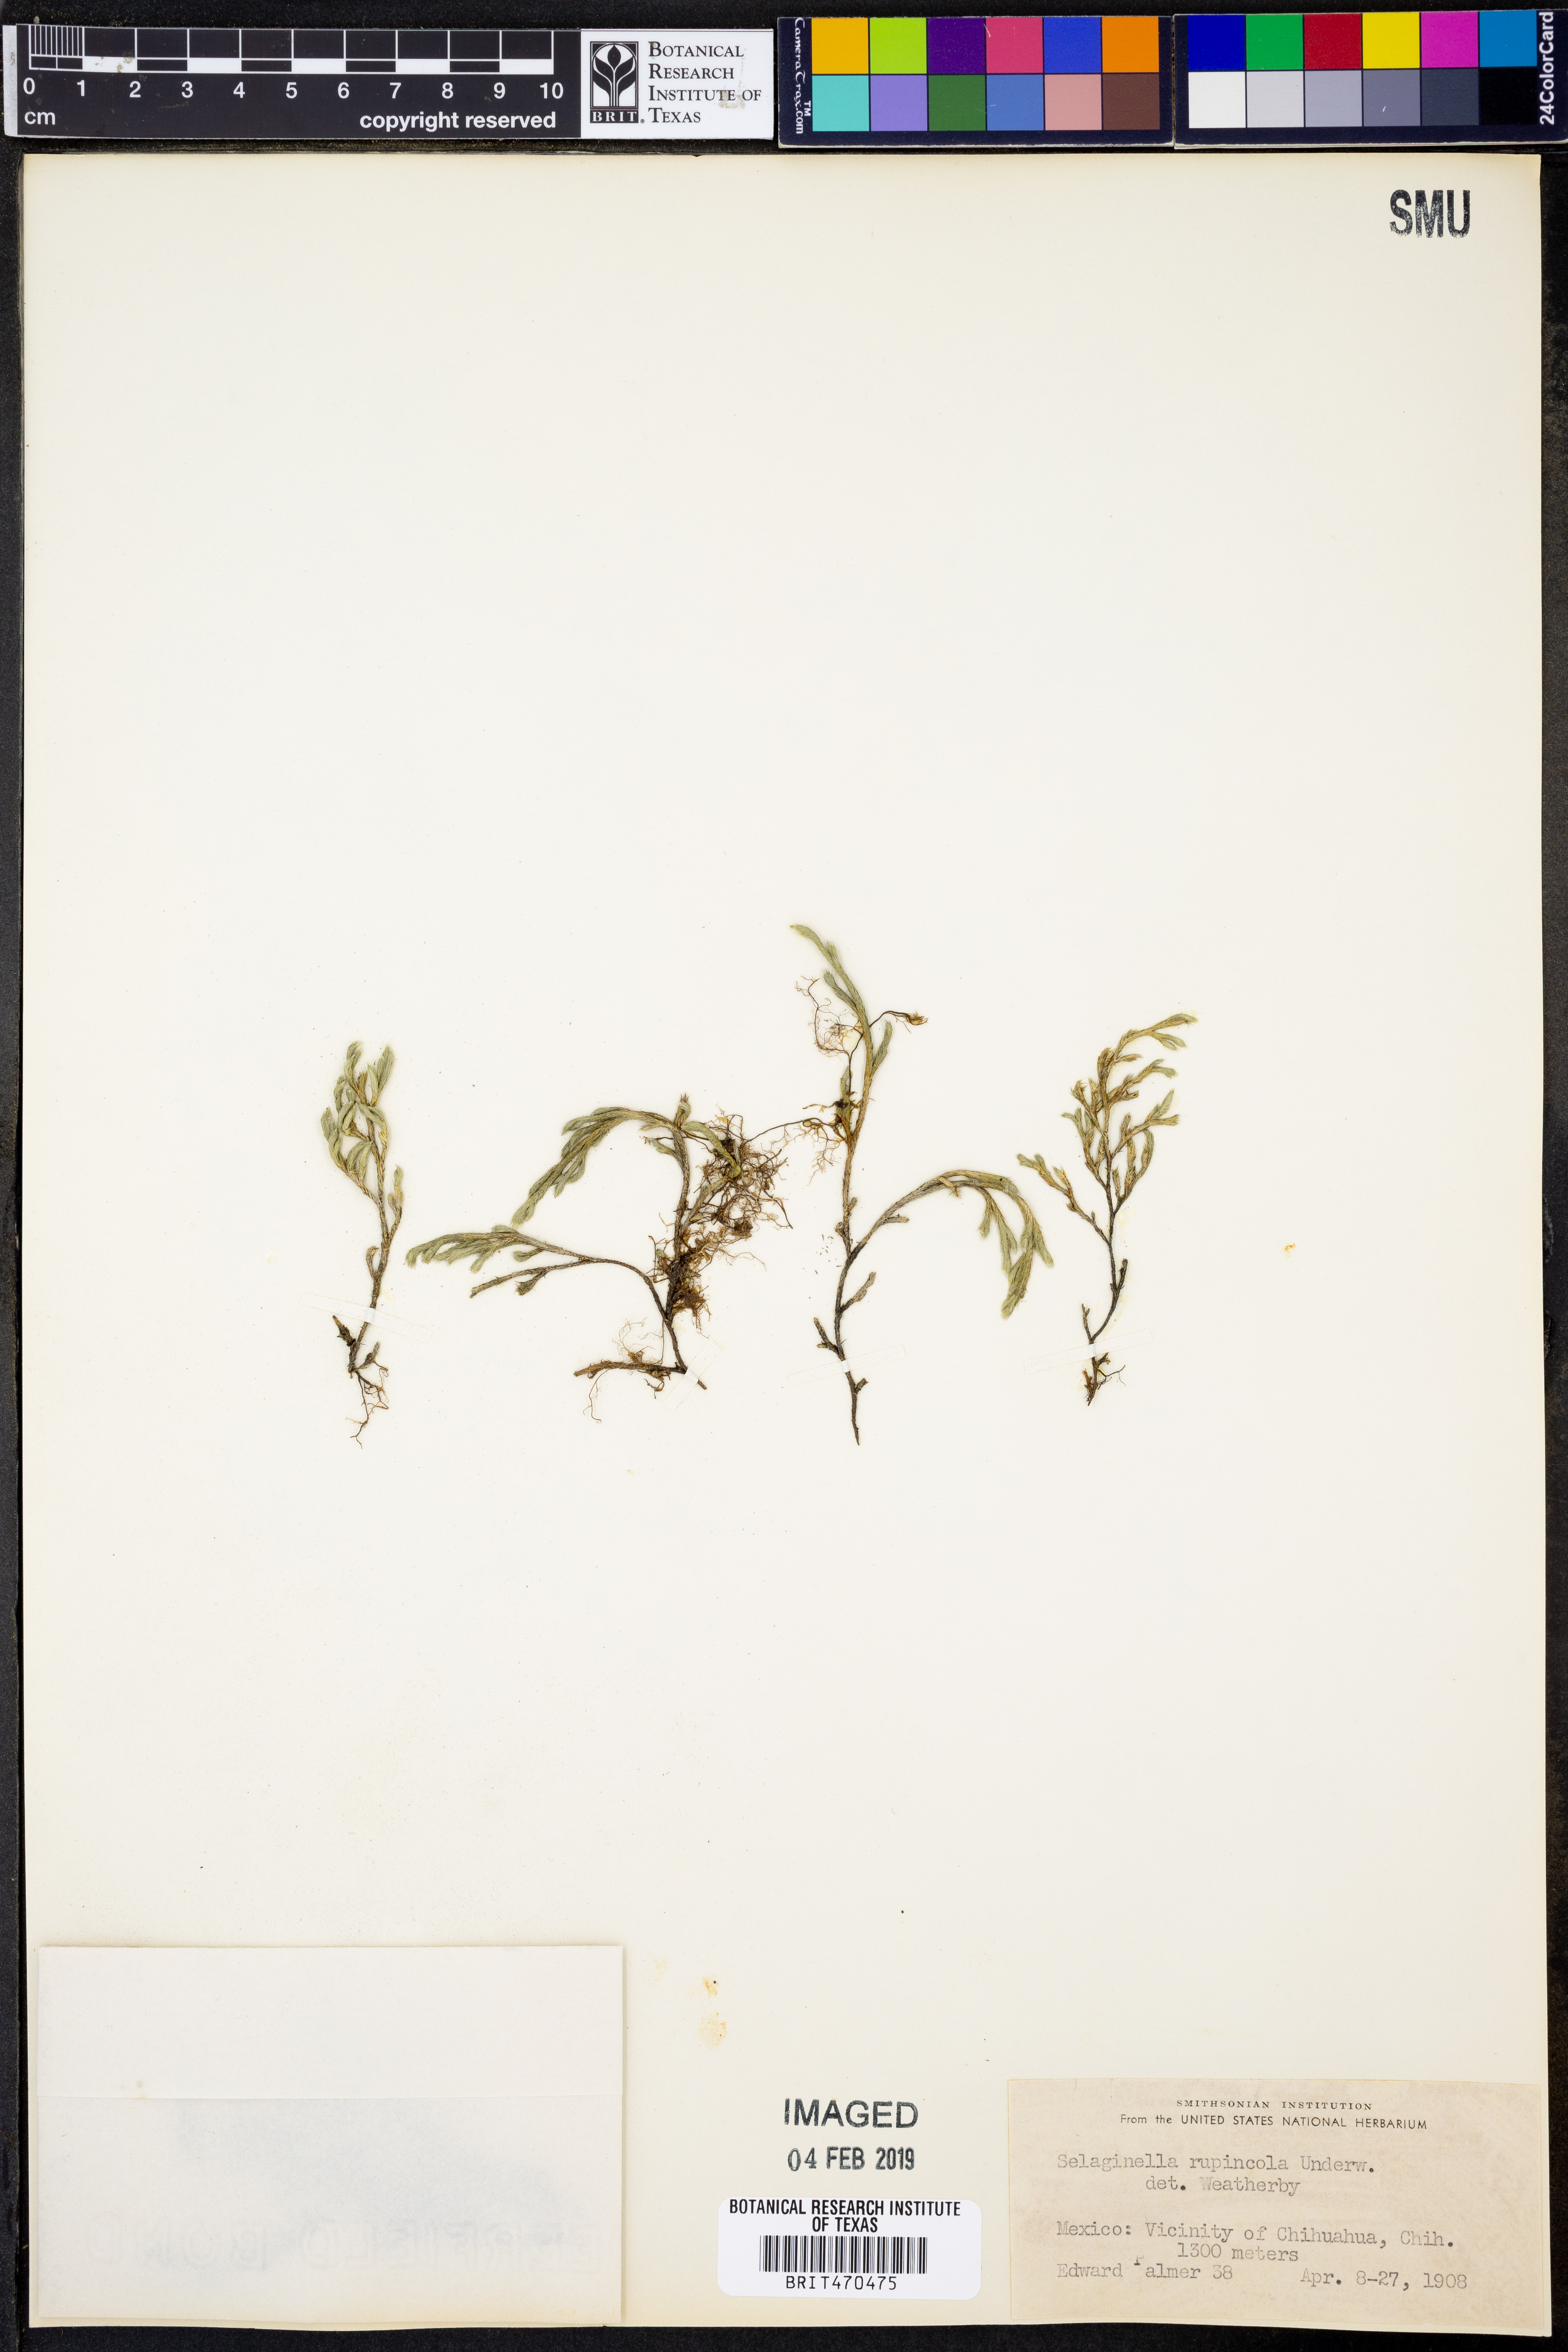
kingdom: Plantae
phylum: Tracheophyta
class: Lycopodiopsida
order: Selaginellales
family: Selaginellaceae
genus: Selaginella
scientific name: Selaginella rupincola
